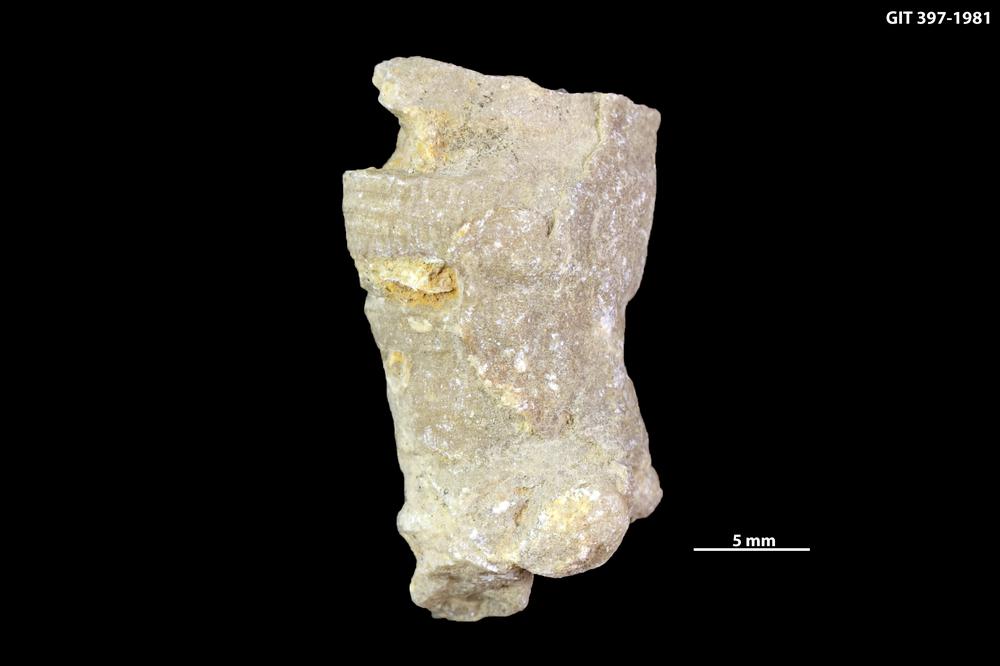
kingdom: Animalia
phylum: Cnidaria
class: Anthozoa
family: Cystiphyllidae
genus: Microplasma
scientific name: Microplasma
